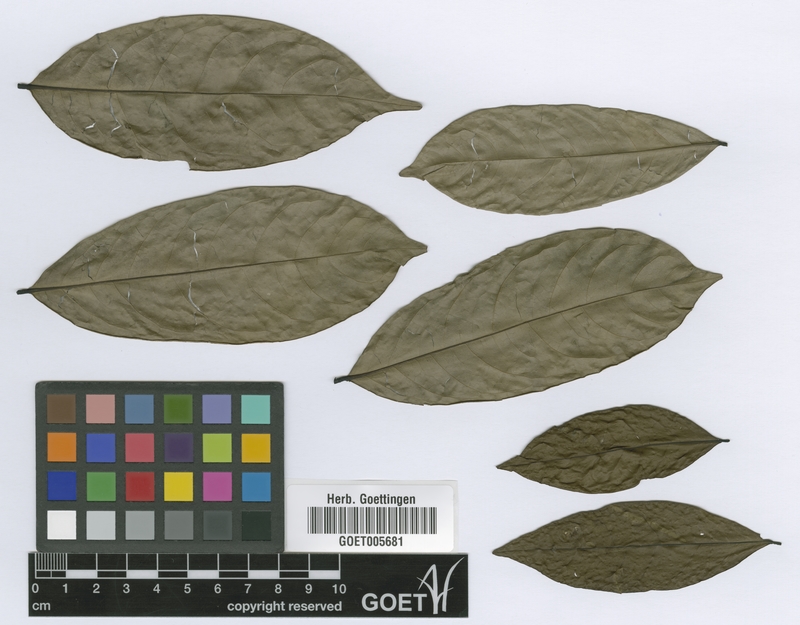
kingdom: Plantae
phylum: Tracheophyta
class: Magnoliopsida
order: Magnoliales
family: Annonaceae
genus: Isolona
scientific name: Isolona hexaloba
